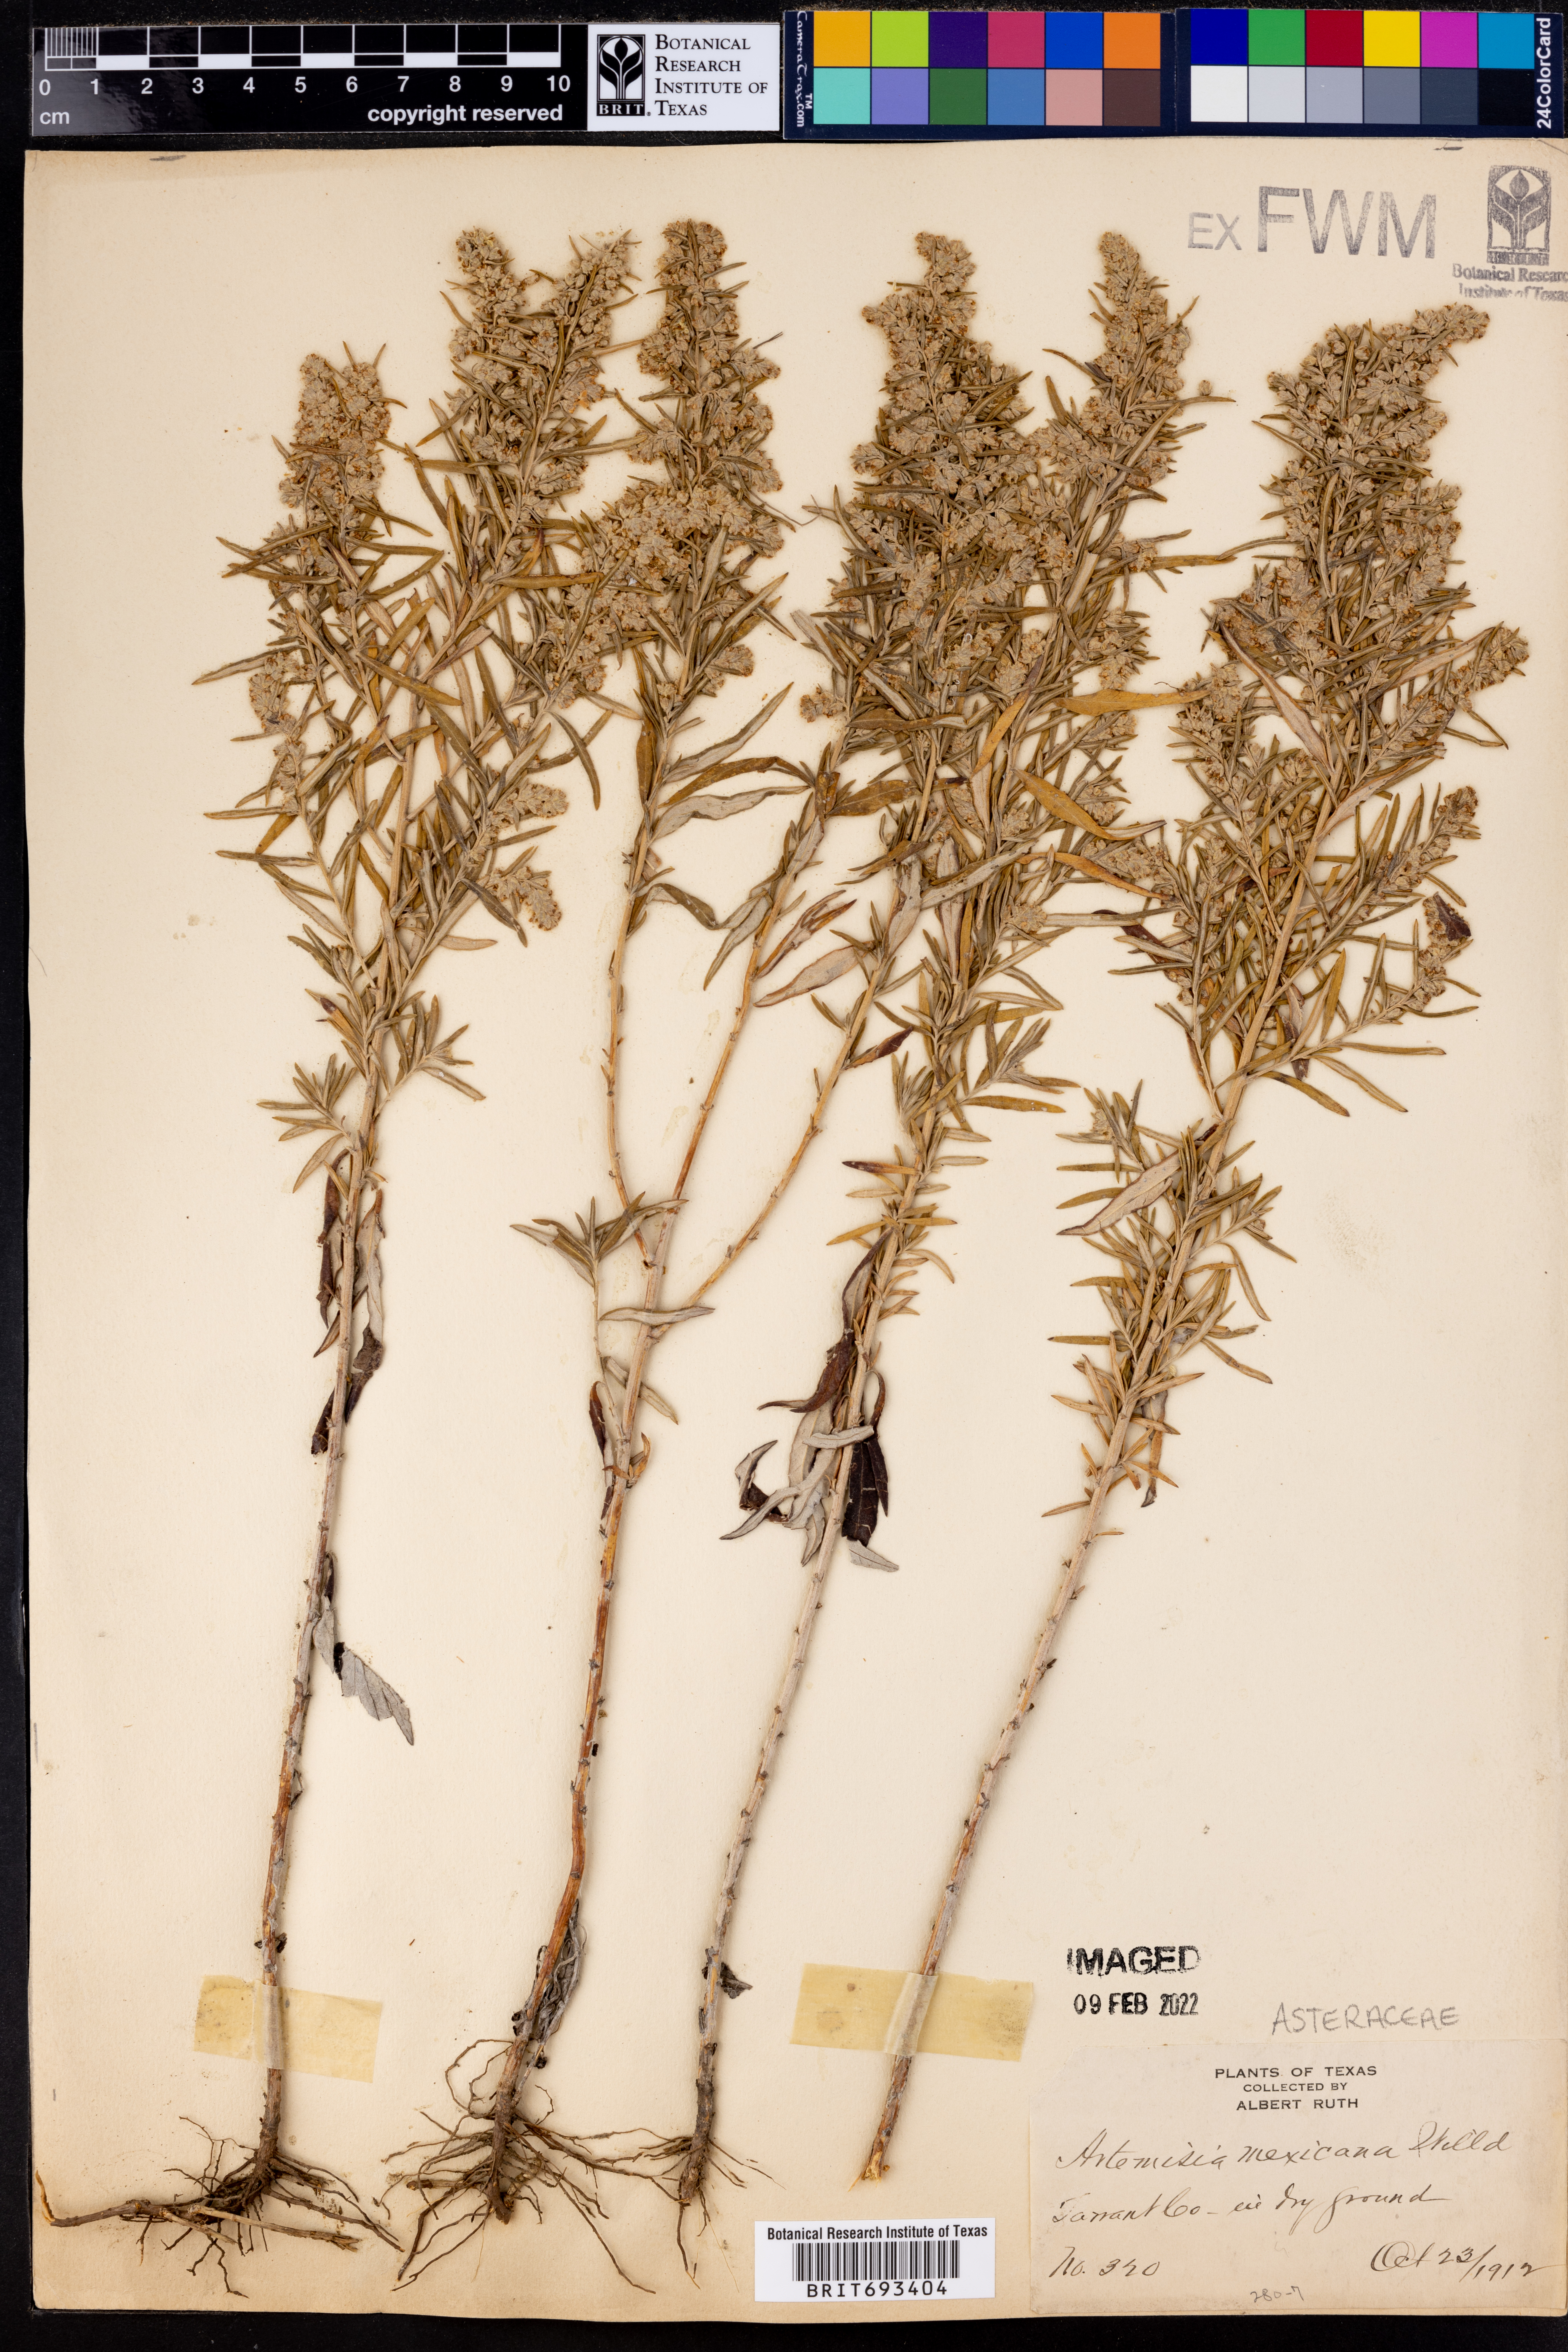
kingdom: Plantae
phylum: Tracheophyta
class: Magnoliopsida
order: Asterales
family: Asteraceae
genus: Artemisia
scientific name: Artemisia ludoviciana
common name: Western mugwort
